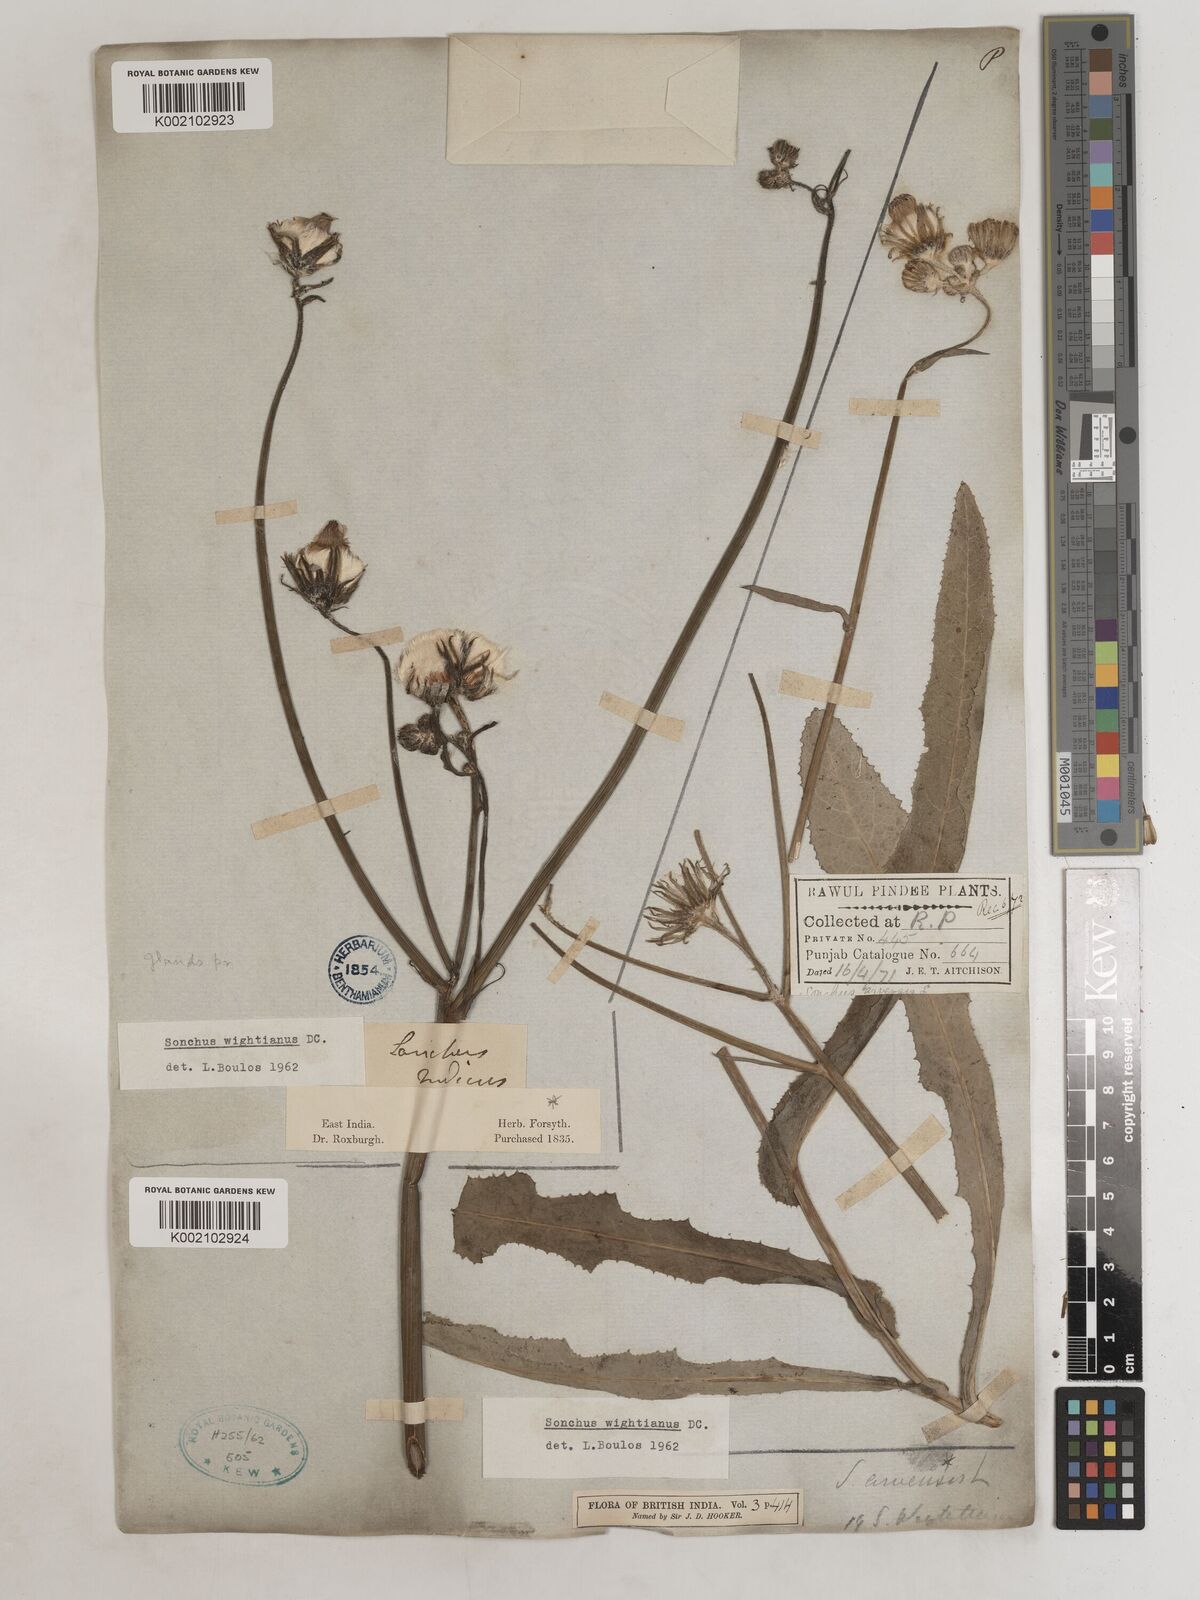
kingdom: Plantae
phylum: Tracheophyta
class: Magnoliopsida
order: Asterales
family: Asteraceae
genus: Sonchus
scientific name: Sonchus arvensis
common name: Perennial sow-thistle
